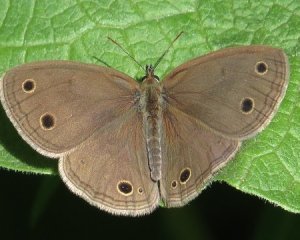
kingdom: Animalia
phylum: Arthropoda
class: Insecta
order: Lepidoptera
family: Nymphalidae
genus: Euptychia
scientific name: Euptychia cymela
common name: Little Wood Satyr
